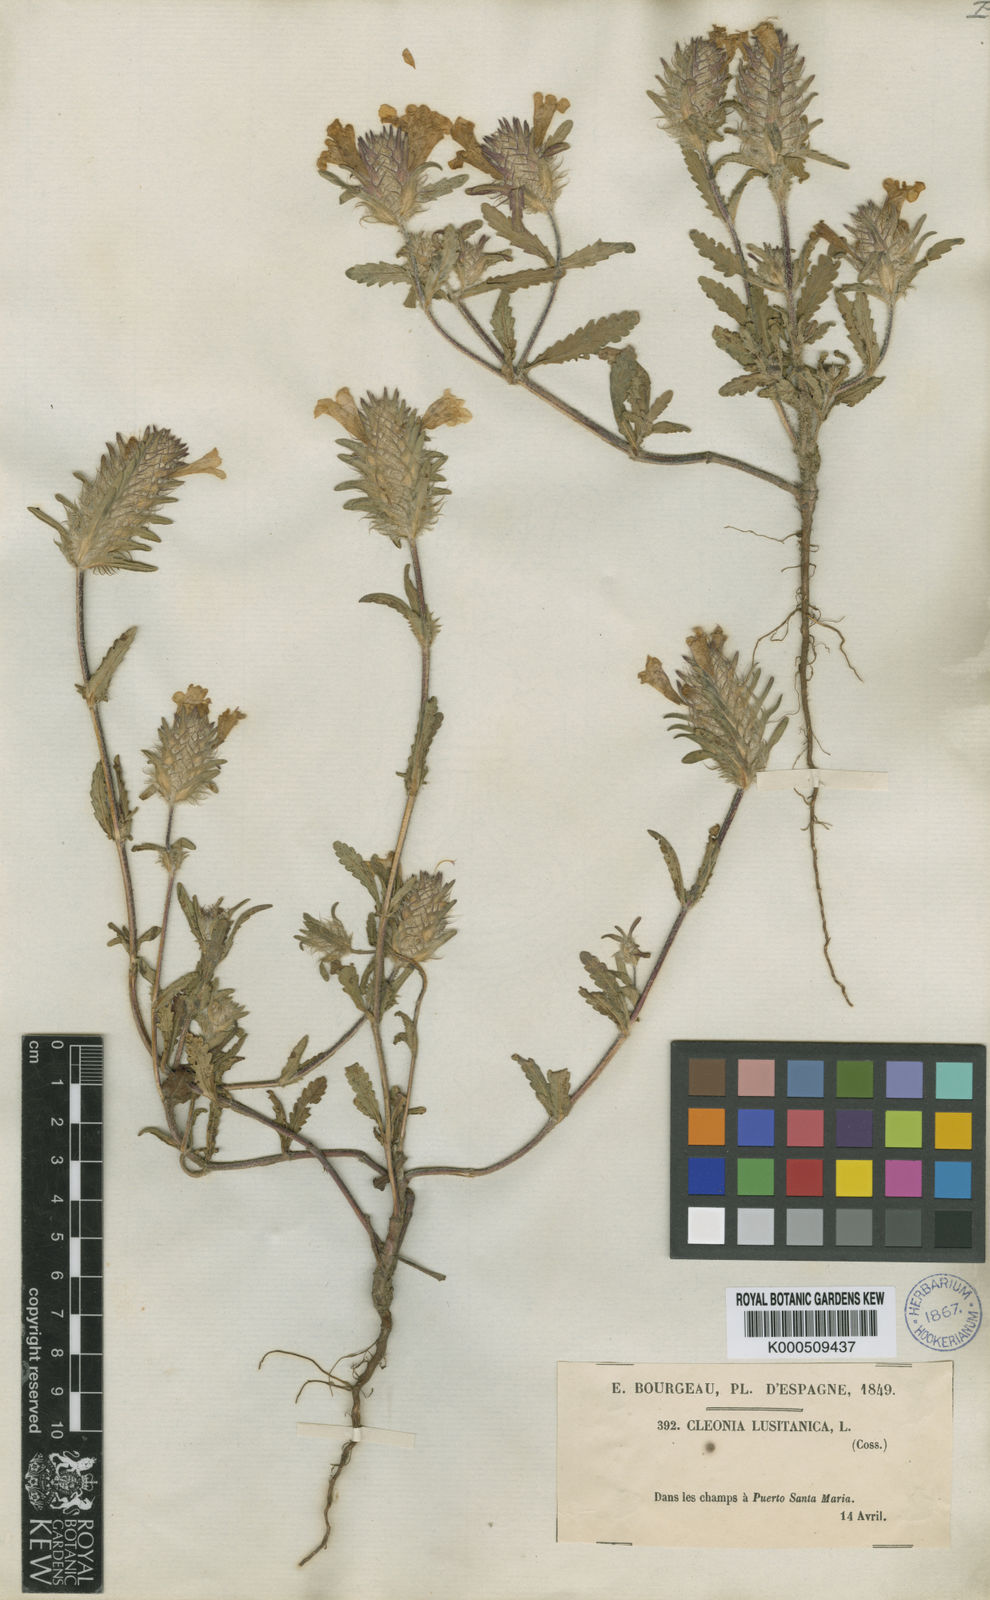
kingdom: Plantae
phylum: Tracheophyta
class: Magnoliopsida
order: Lamiales
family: Lamiaceae
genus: Cleonia
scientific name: Cleonia lusitanica
